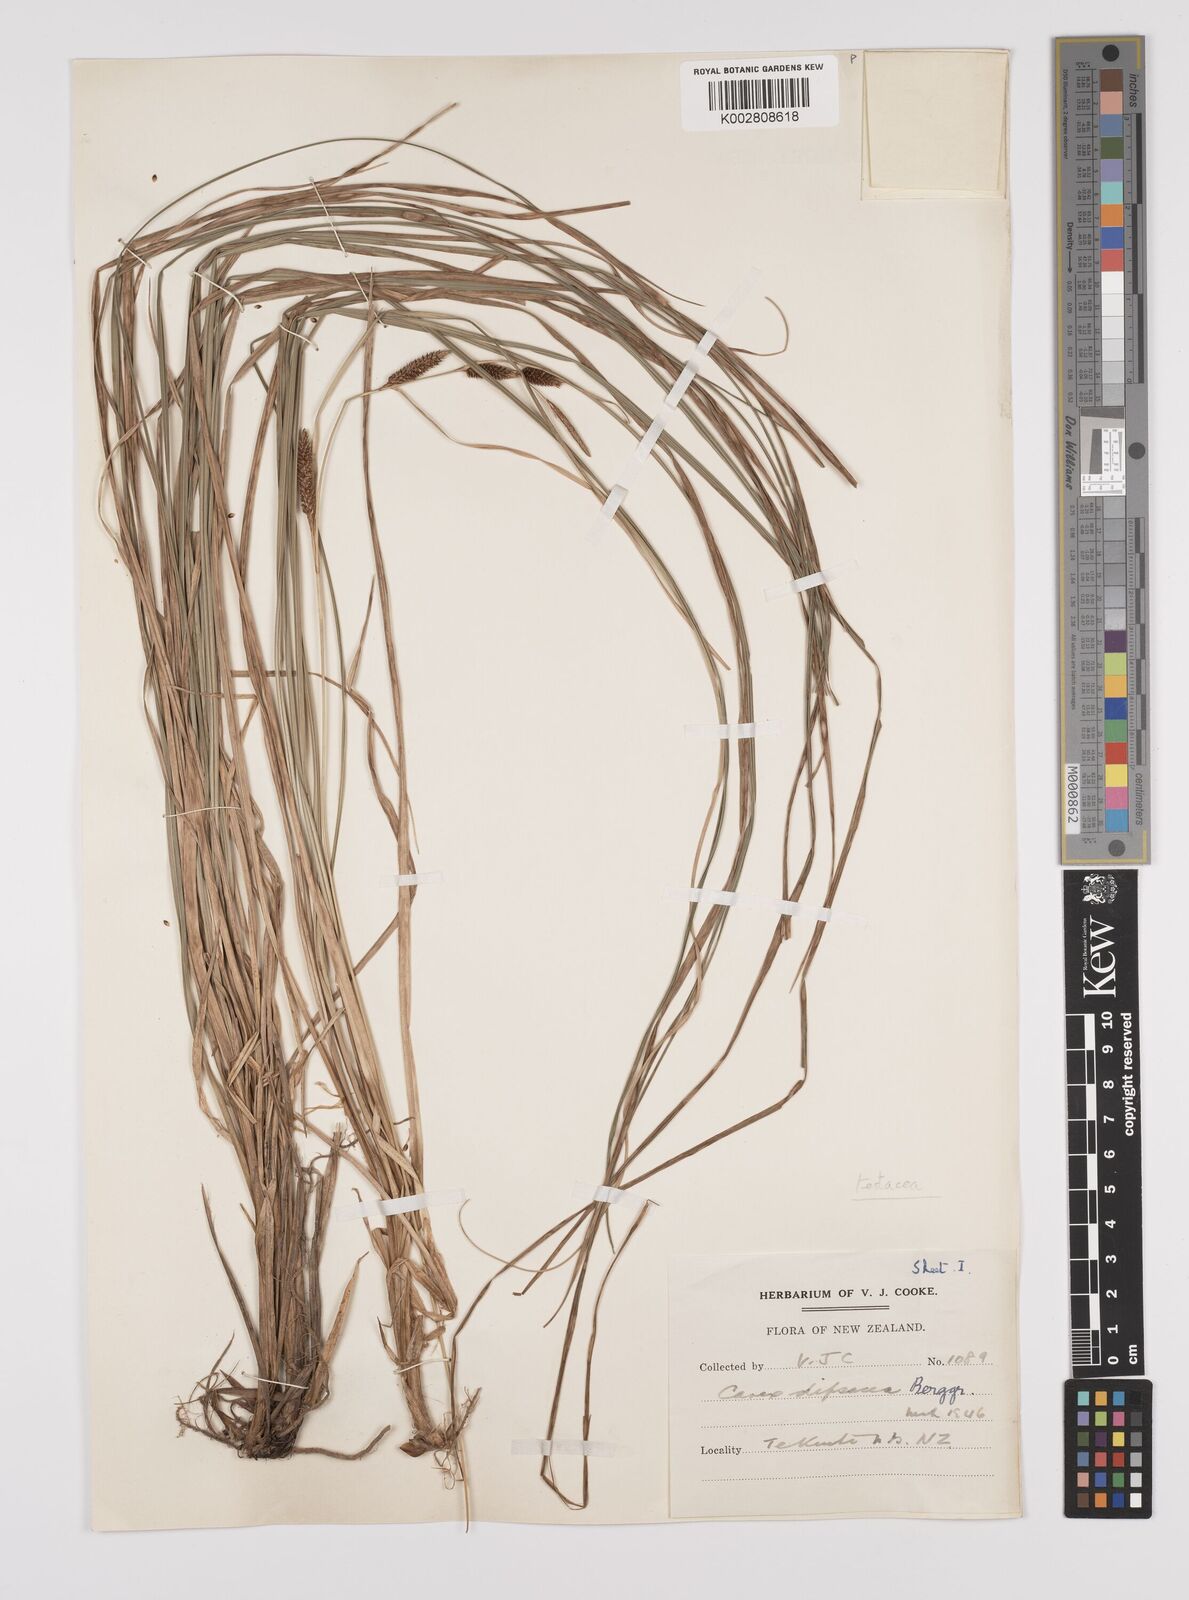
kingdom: Plantae
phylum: Tracheophyta
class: Liliopsida
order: Poales
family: Cyperaceae
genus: Carex
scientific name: Carex dipsacea
